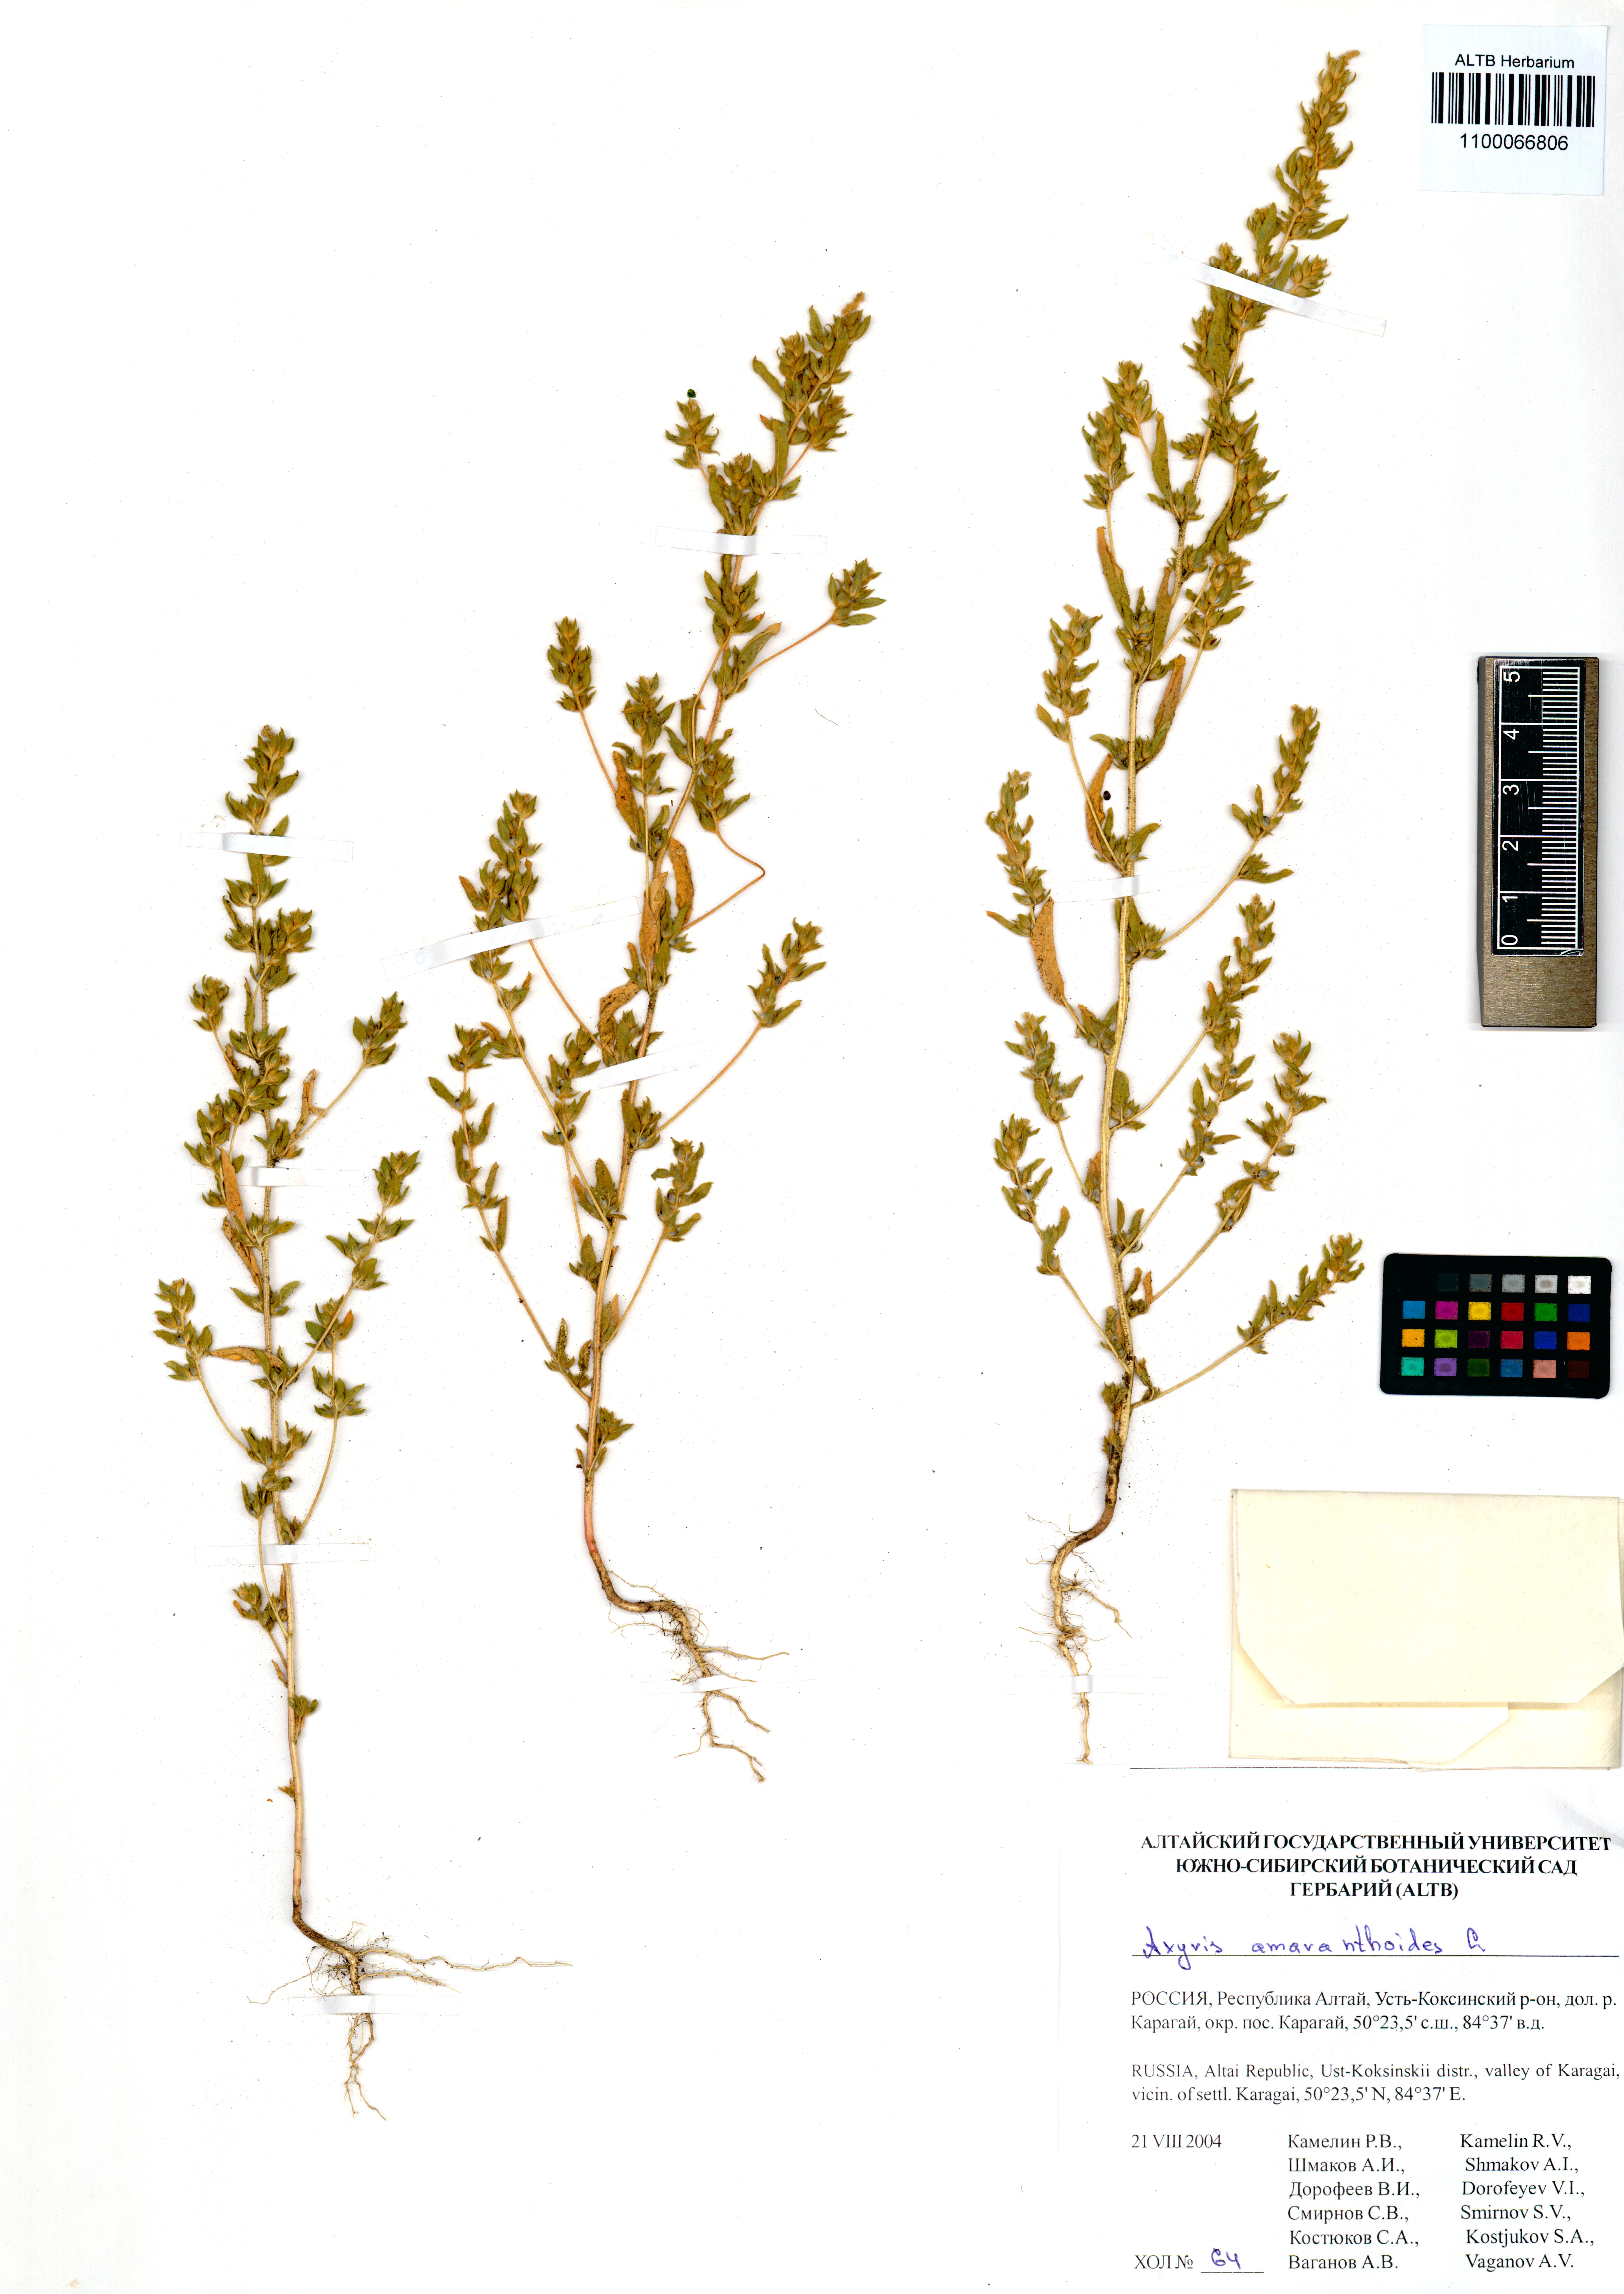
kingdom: Plantae
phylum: Tracheophyta
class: Magnoliopsida
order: Caryophyllales
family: Amaranthaceae
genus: Axyris
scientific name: Axyris amaranthoides
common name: Russian pigweed
